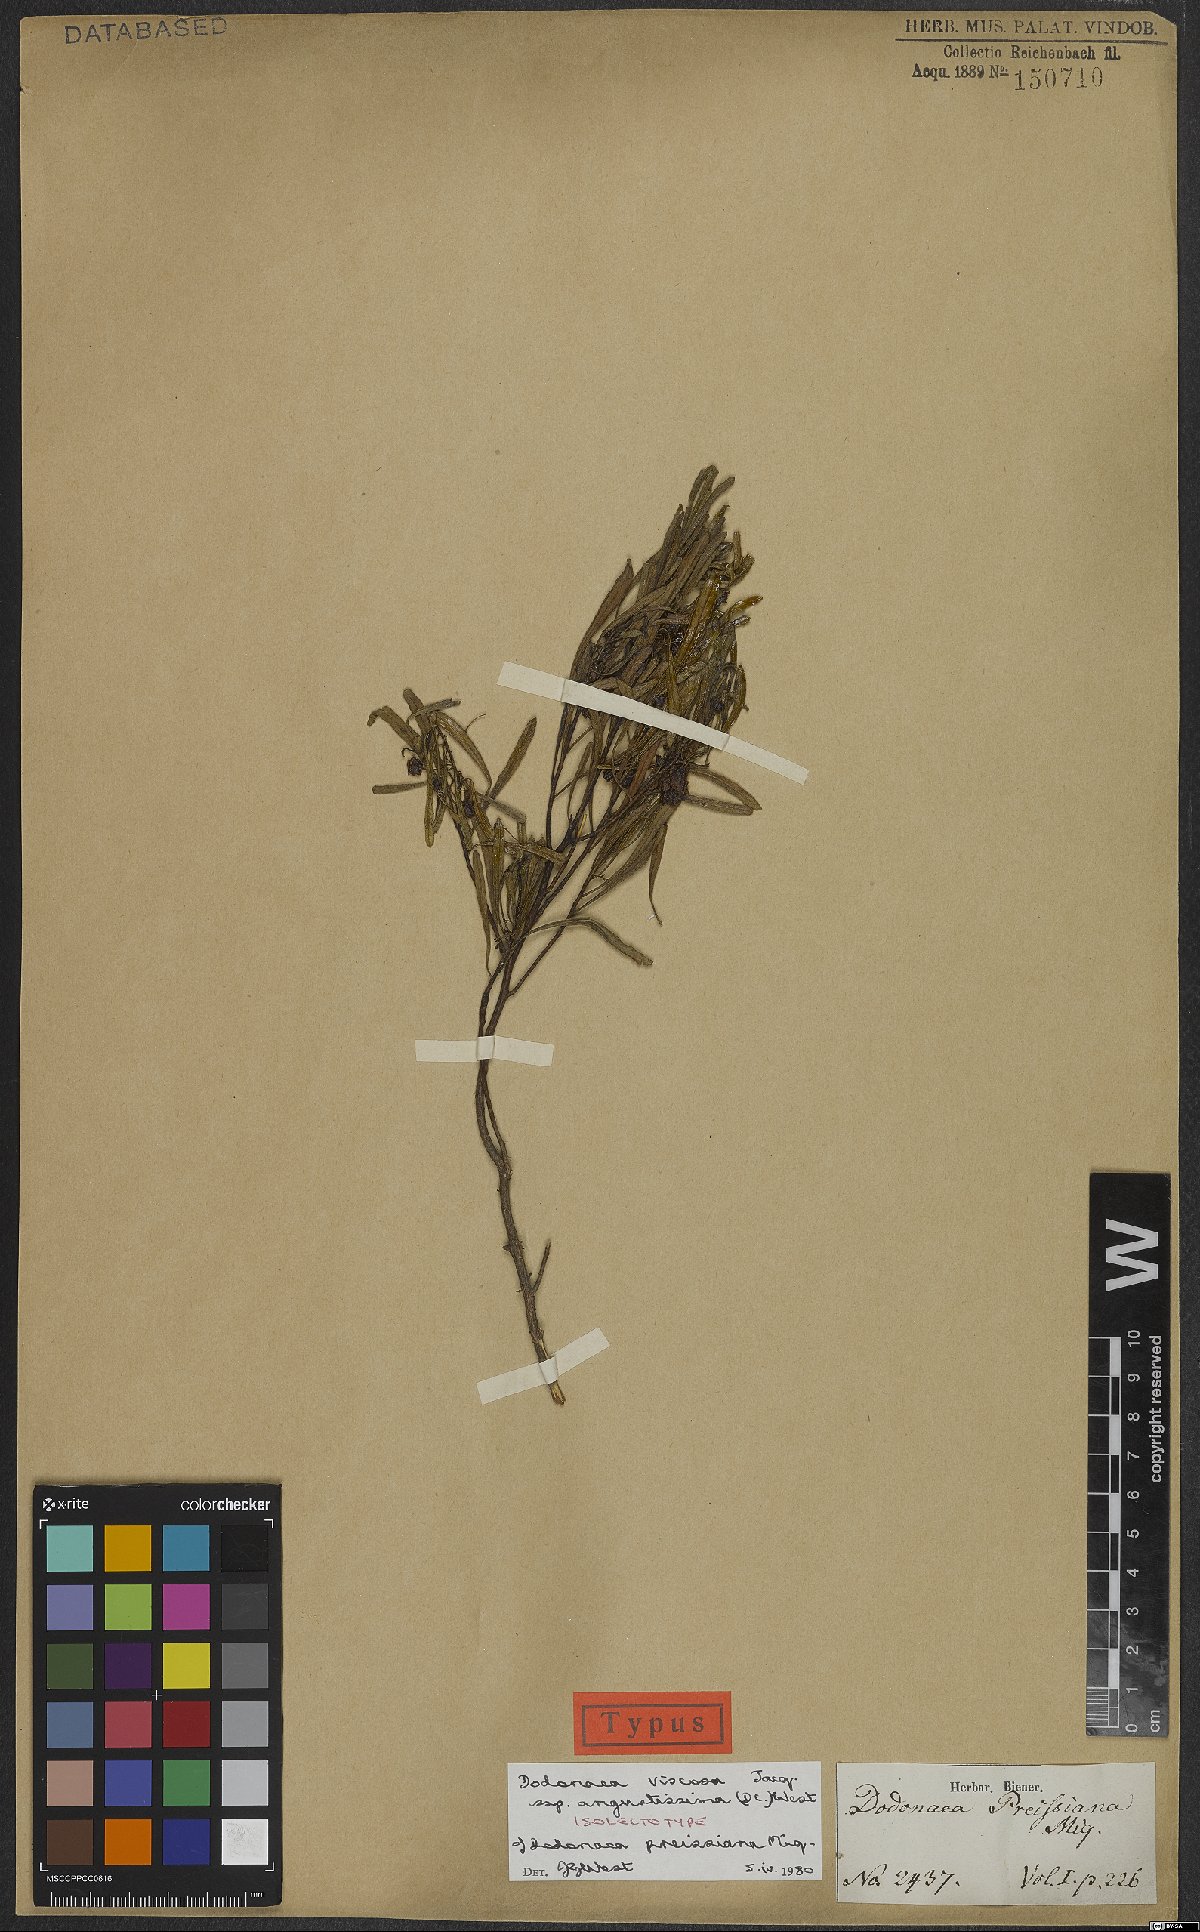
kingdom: Plantae
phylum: Tracheophyta
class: Magnoliopsida
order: Sapindales
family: Sapindaceae
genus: Dodonaea
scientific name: Dodonaea viscosa
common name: Hopbush
